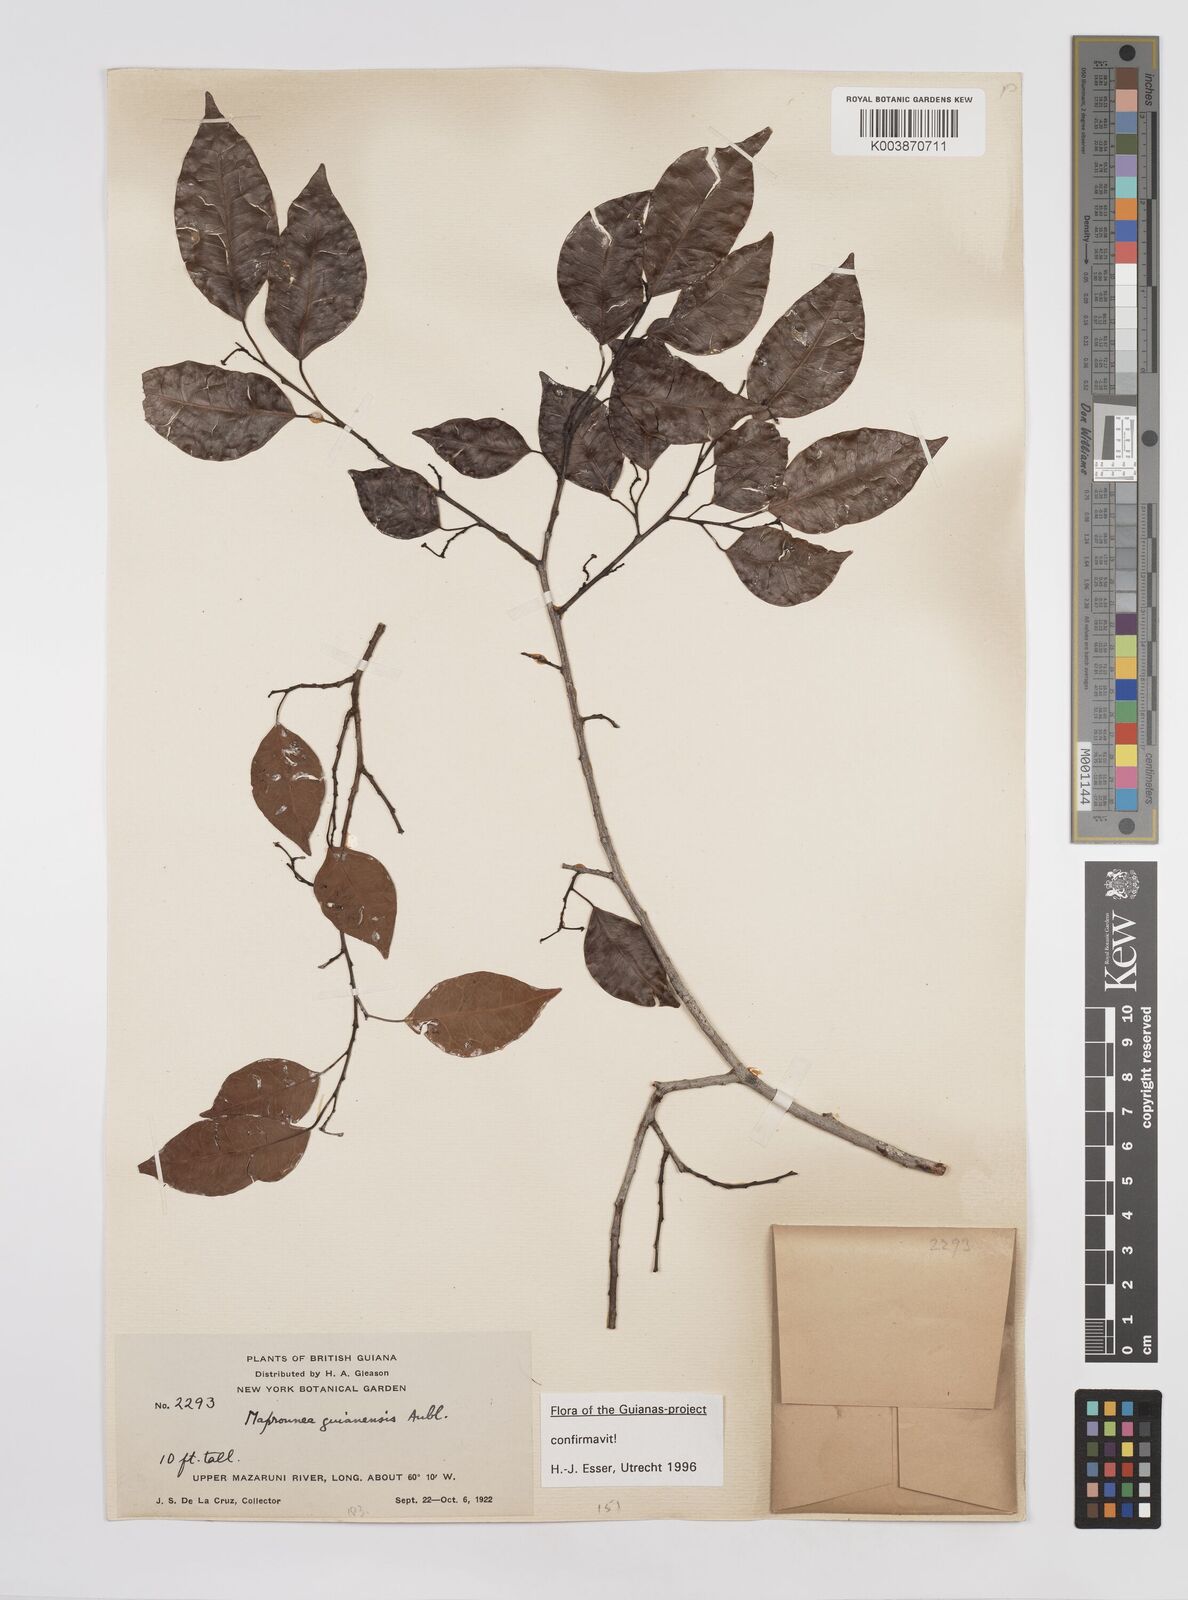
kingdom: Plantae
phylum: Tracheophyta
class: Magnoliopsida
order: Malpighiales
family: Euphorbiaceae
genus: Maprounea
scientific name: Maprounea guianensis
